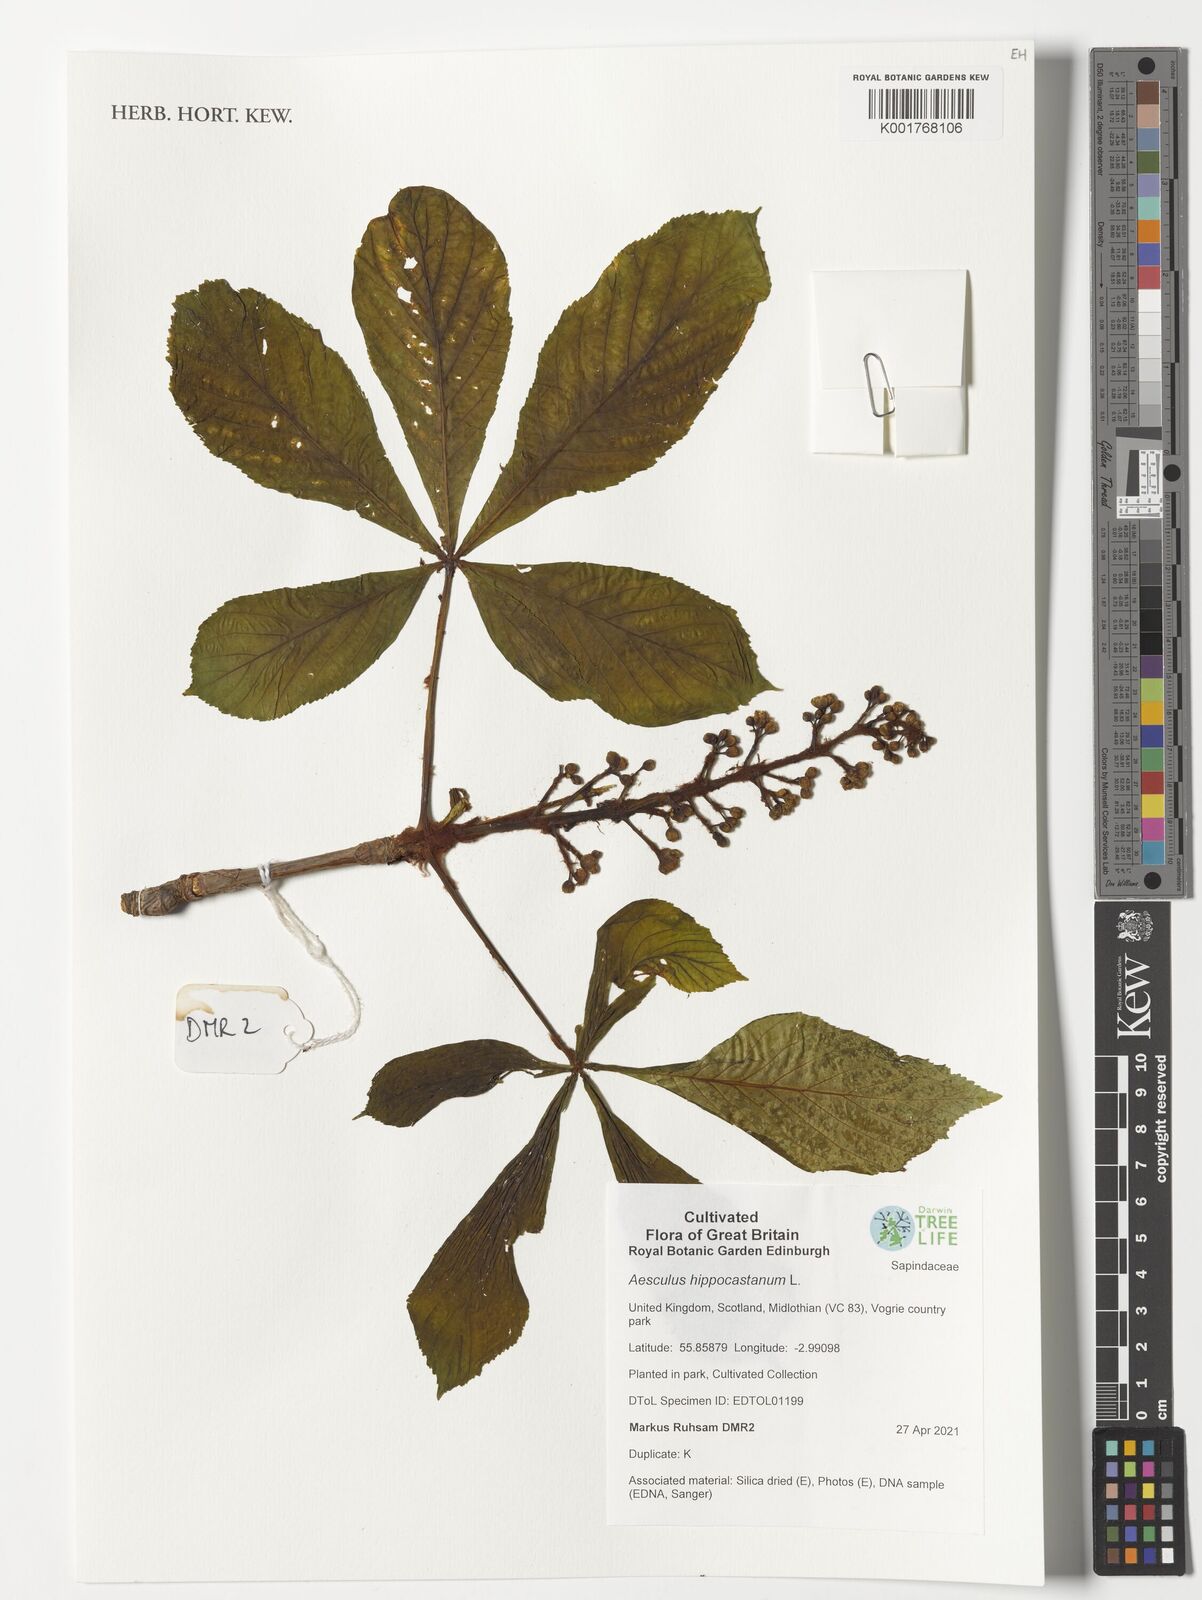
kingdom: Plantae
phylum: Tracheophyta
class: Magnoliopsida
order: Sapindales
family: Sapindaceae
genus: Aesculus
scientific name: Aesculus hippocastanum
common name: Horse-chestnut
